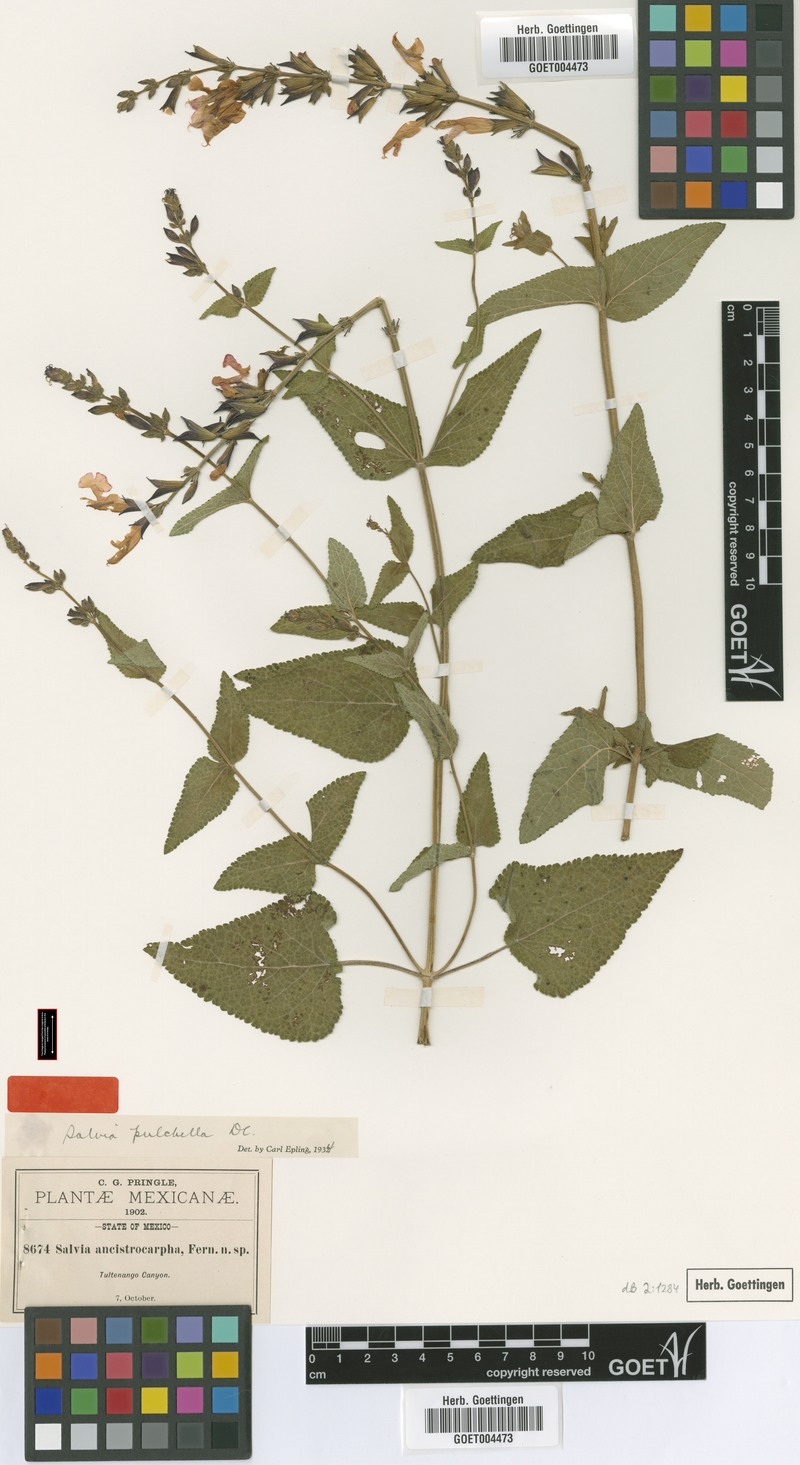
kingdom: Plantae
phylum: Tracheophyta
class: Magnoliopsida
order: Lamiales
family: Lamiaceae
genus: Salvia
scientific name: Salvia pulchella
